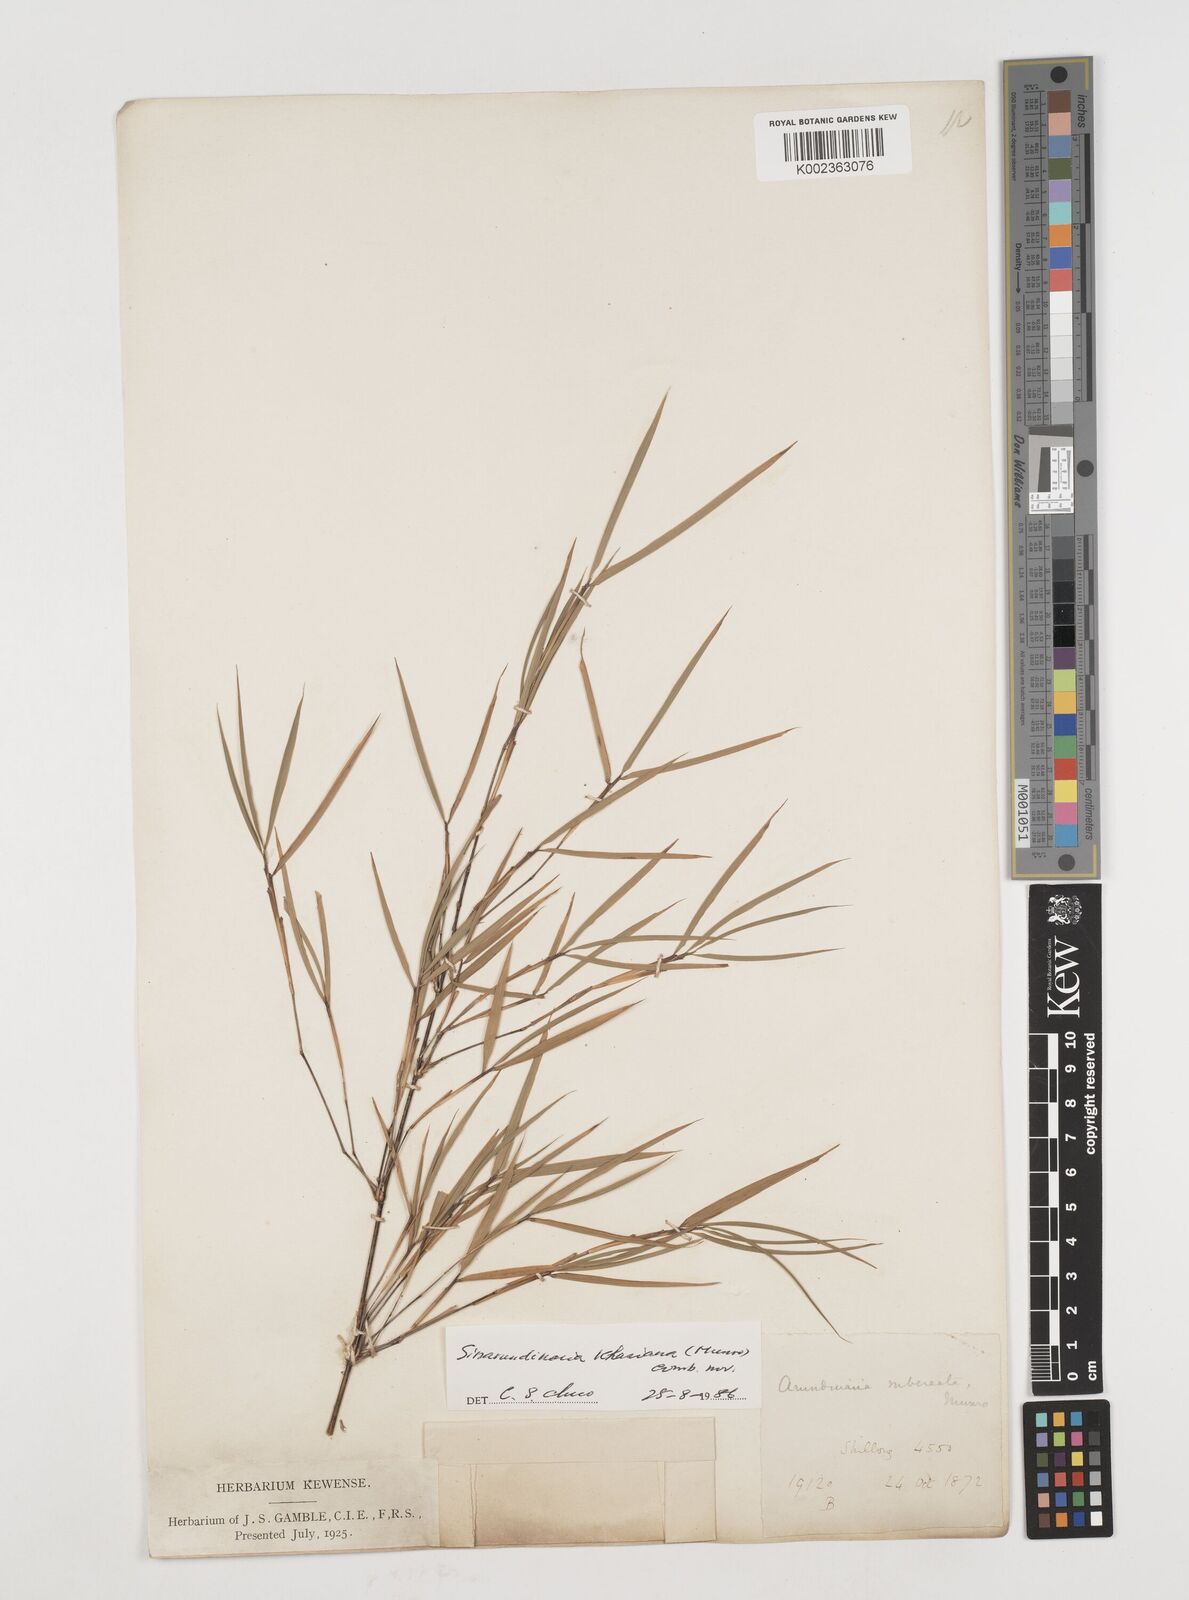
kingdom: Plantae
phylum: Tracheophyta
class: Liliopsida
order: Poales
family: Poaceae
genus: Drepanostachyum
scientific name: Drepanostachyum
